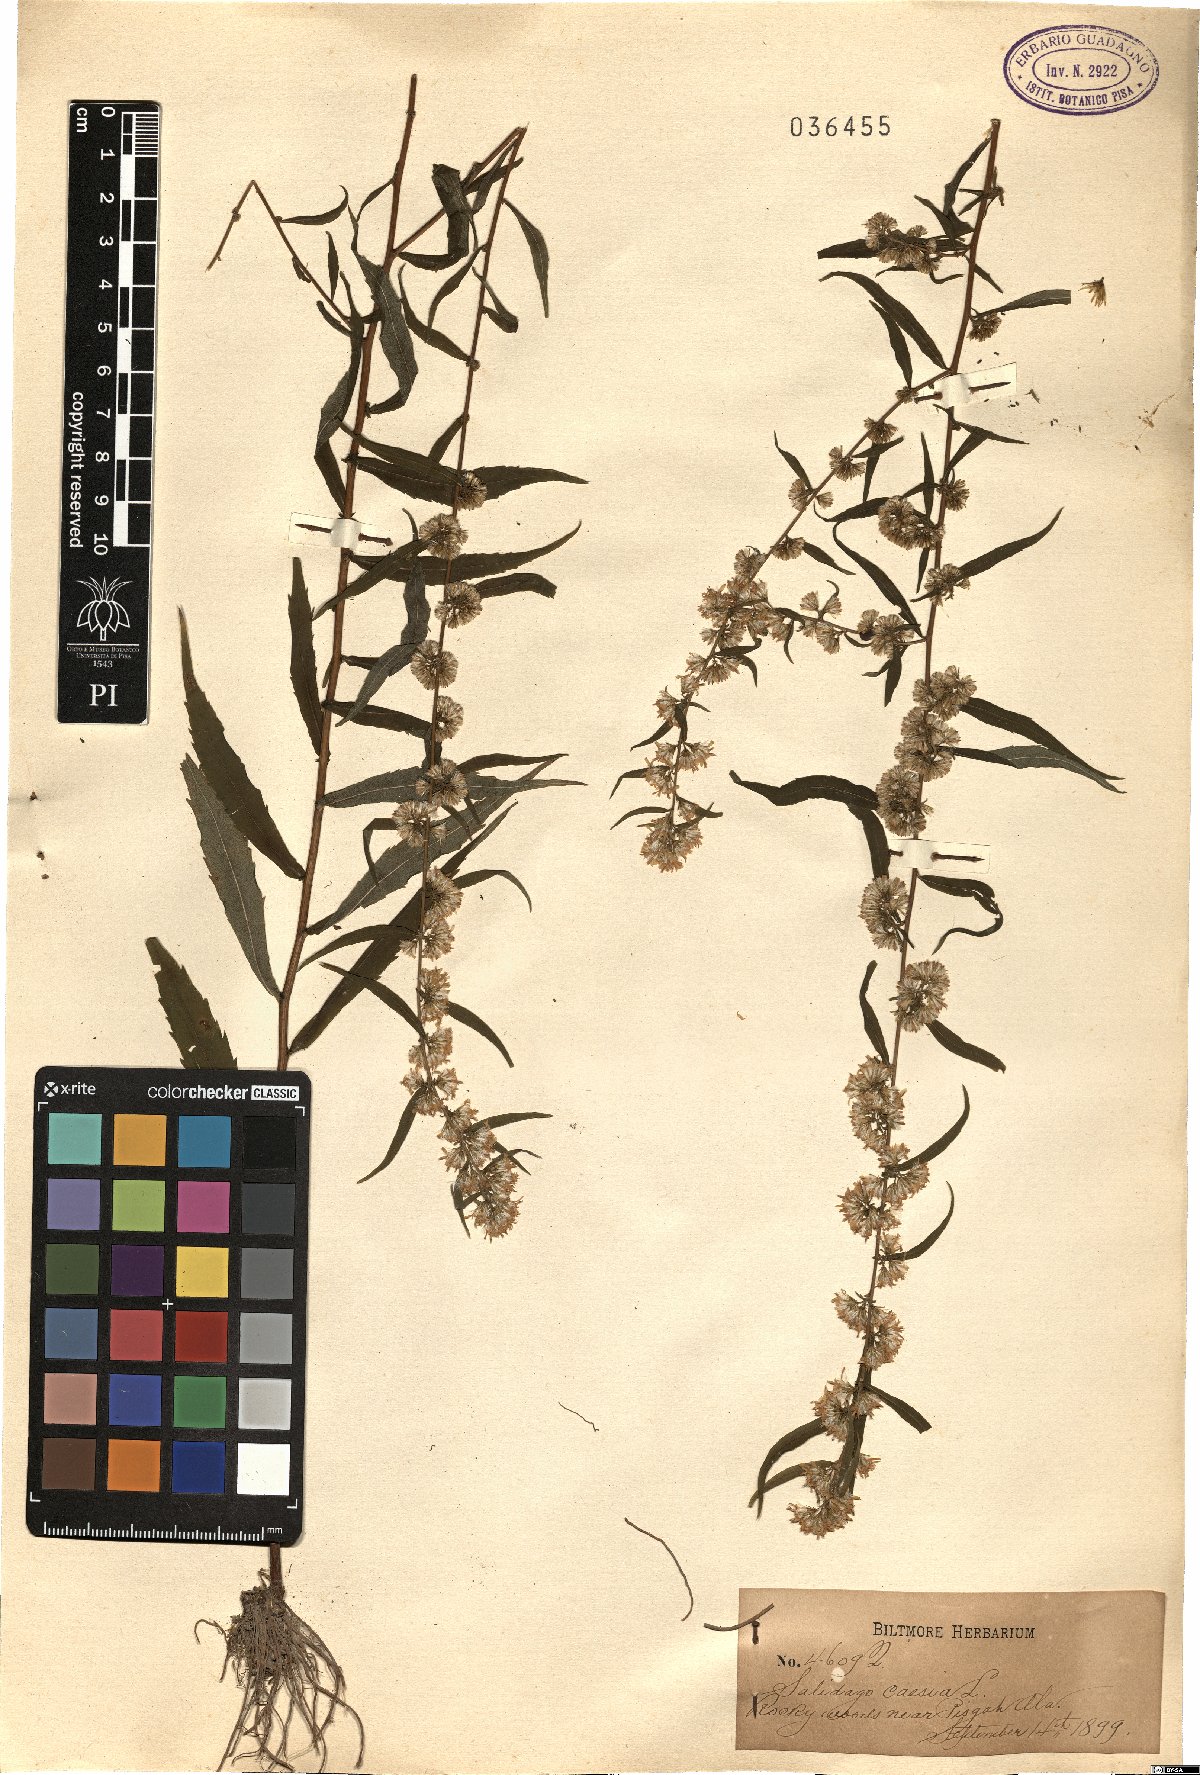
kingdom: Plantae
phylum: Tracheophyta
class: Magnoliopsida
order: Asterales
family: Asteraceae
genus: Solidago
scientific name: Solidago caesia
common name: Woodland goldenrod
